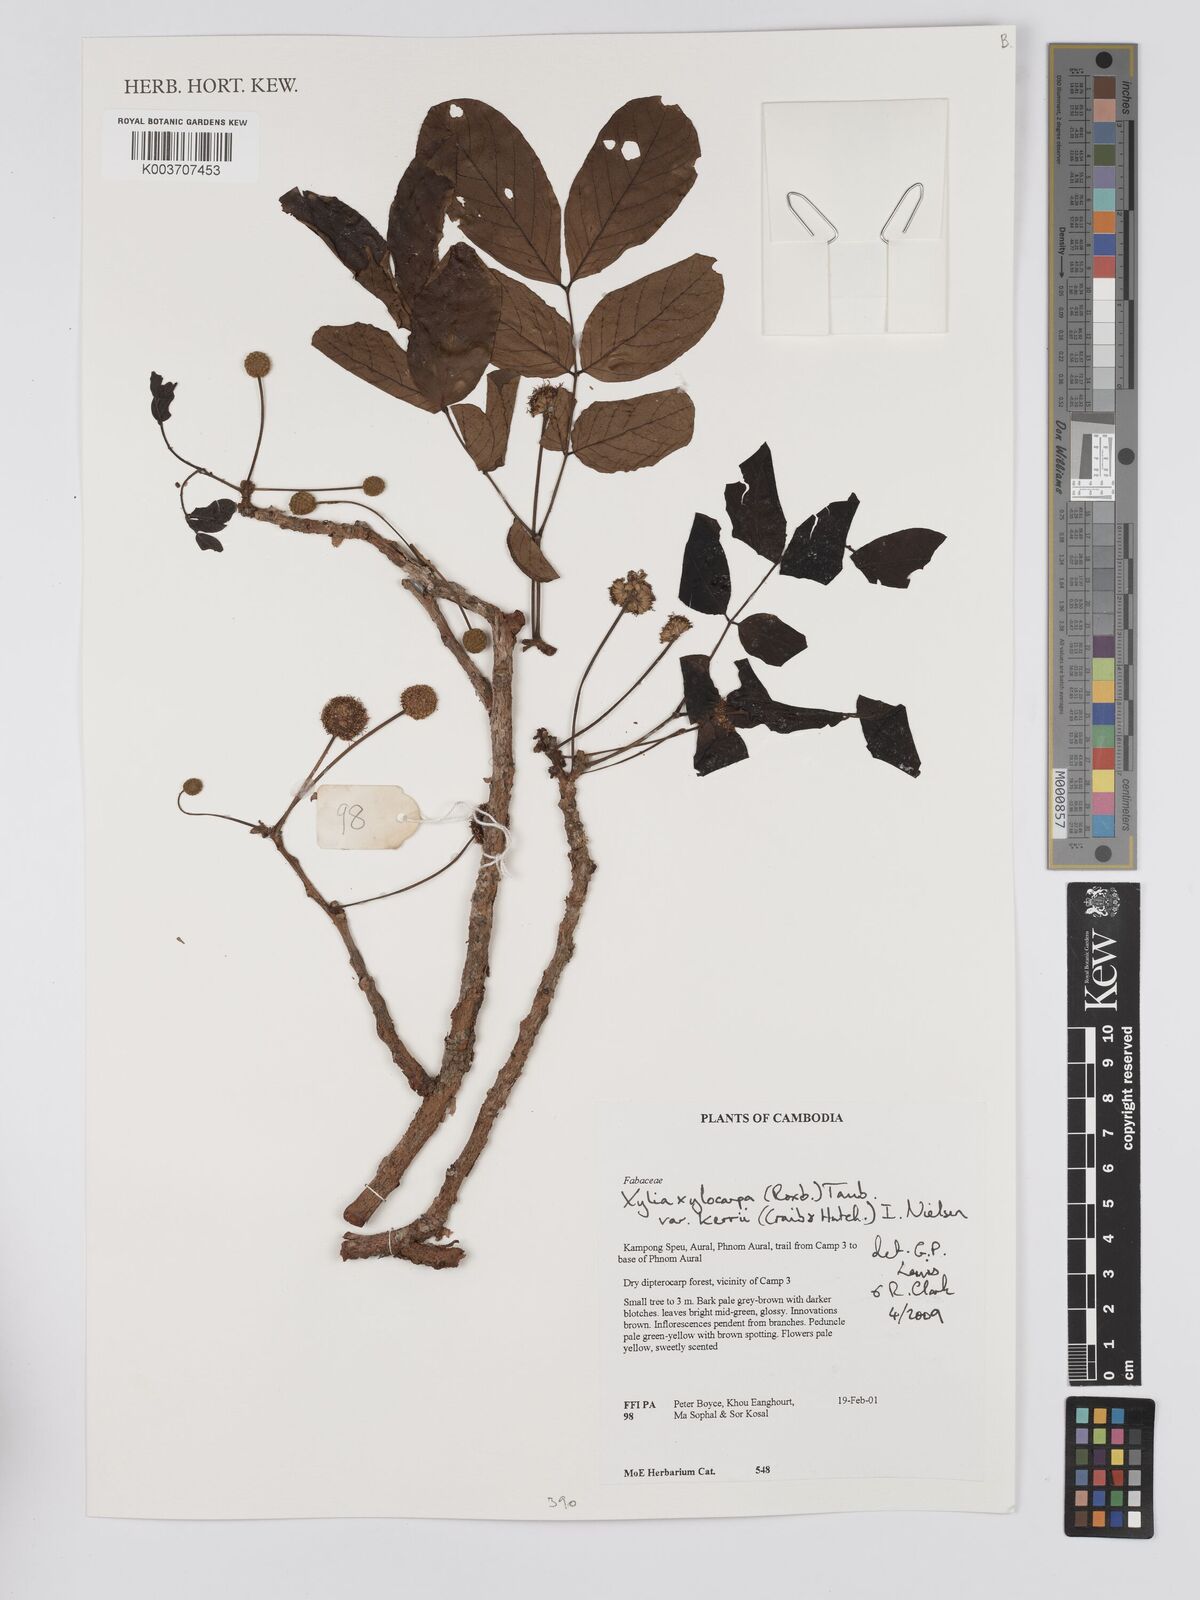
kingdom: Plantae
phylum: Tracheophyta
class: Magnoliopsida
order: Fabales
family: Fabaceae
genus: Xylia
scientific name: Xylia xylocarpa
